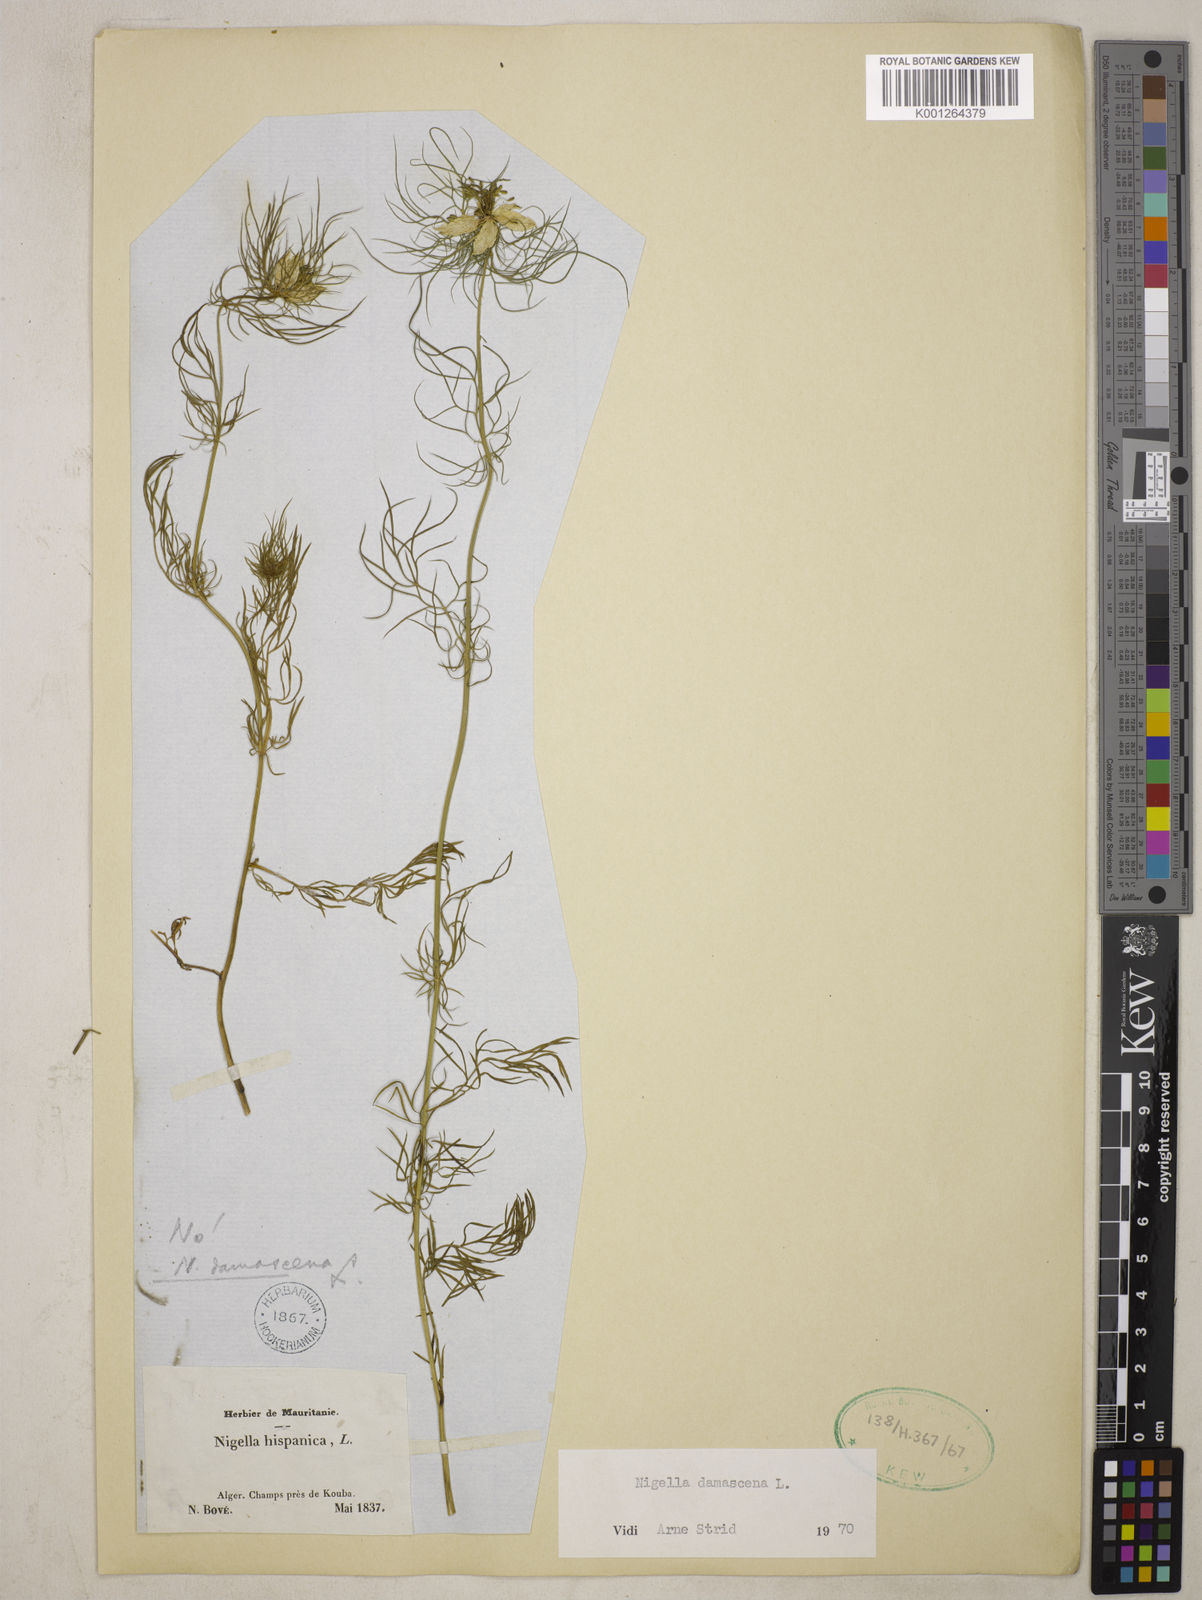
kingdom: Plantae
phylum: Tracheophyta
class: Magnoliopsida
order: Ranunculales
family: Ranunculaceae
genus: Nigella
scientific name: Nigella damascena
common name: Love-in-a-mist
